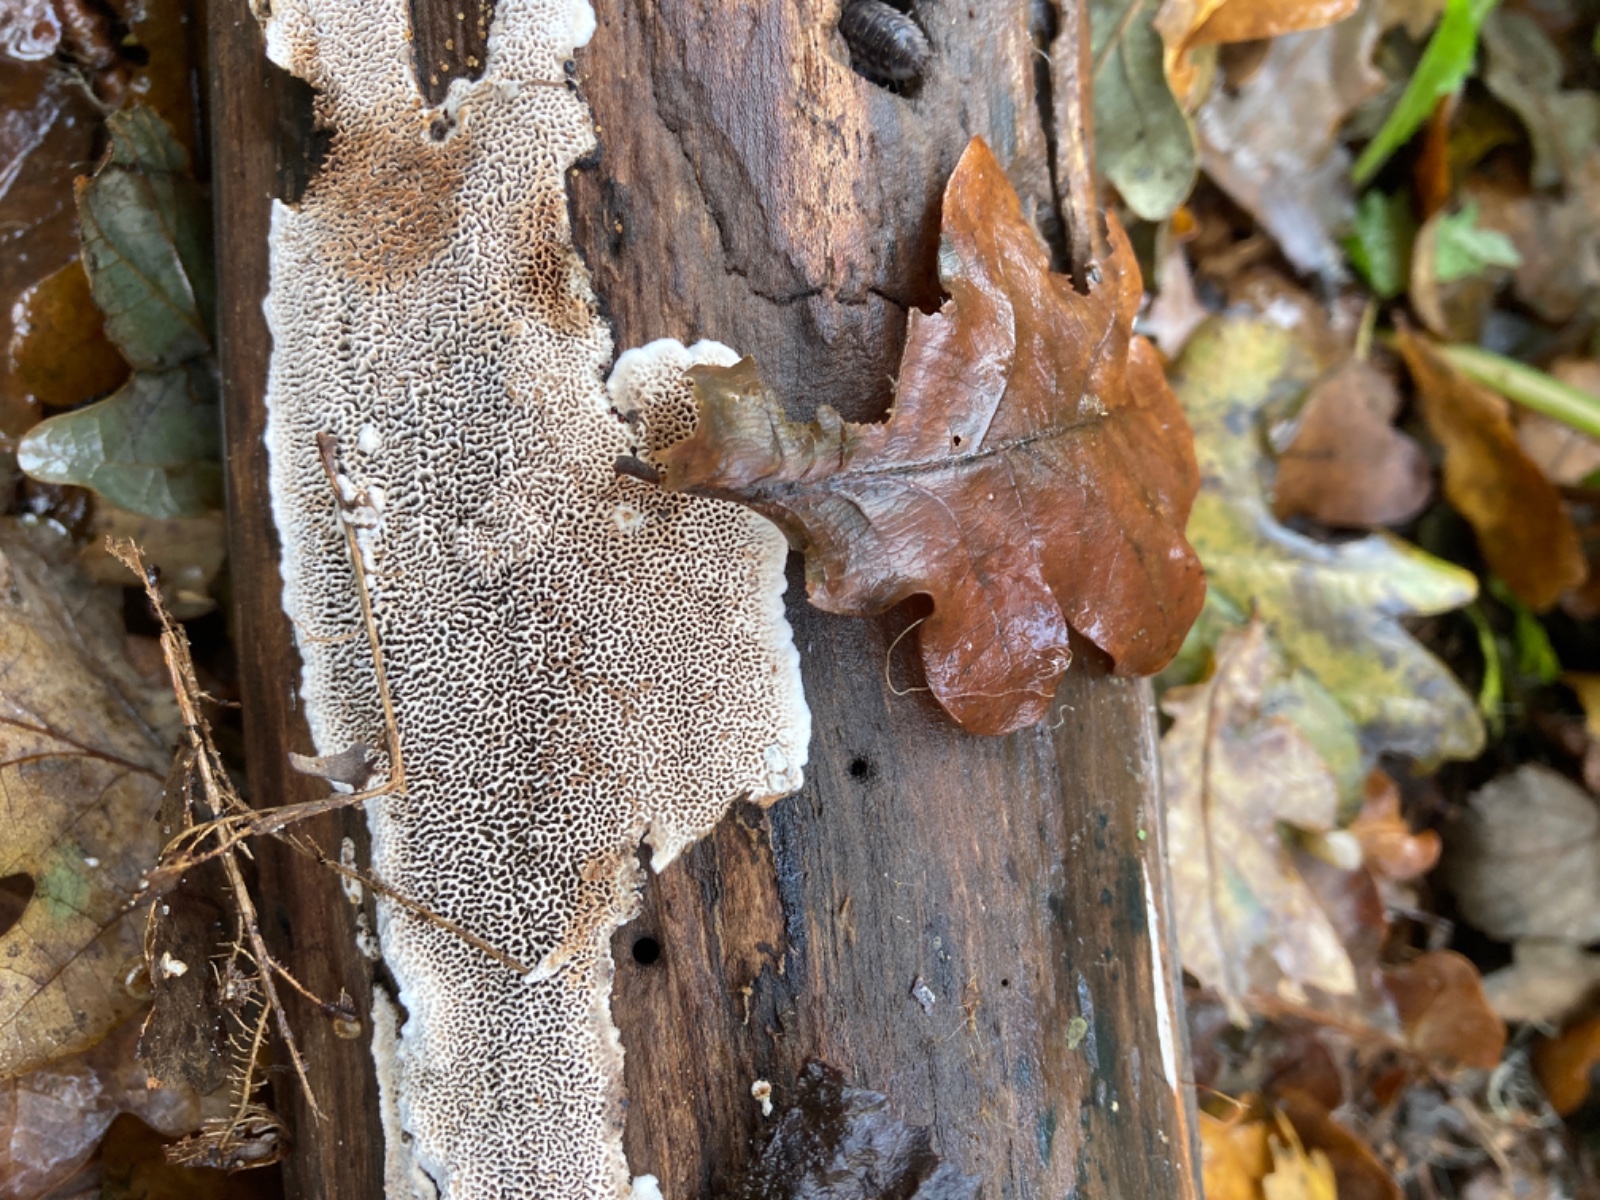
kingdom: Fungi
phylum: Basidiomycota
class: Agaricomycetes
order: Polyporales
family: Polyporaceae
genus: Podofomes
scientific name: Podofomes mollis
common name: blød begporesvamp
